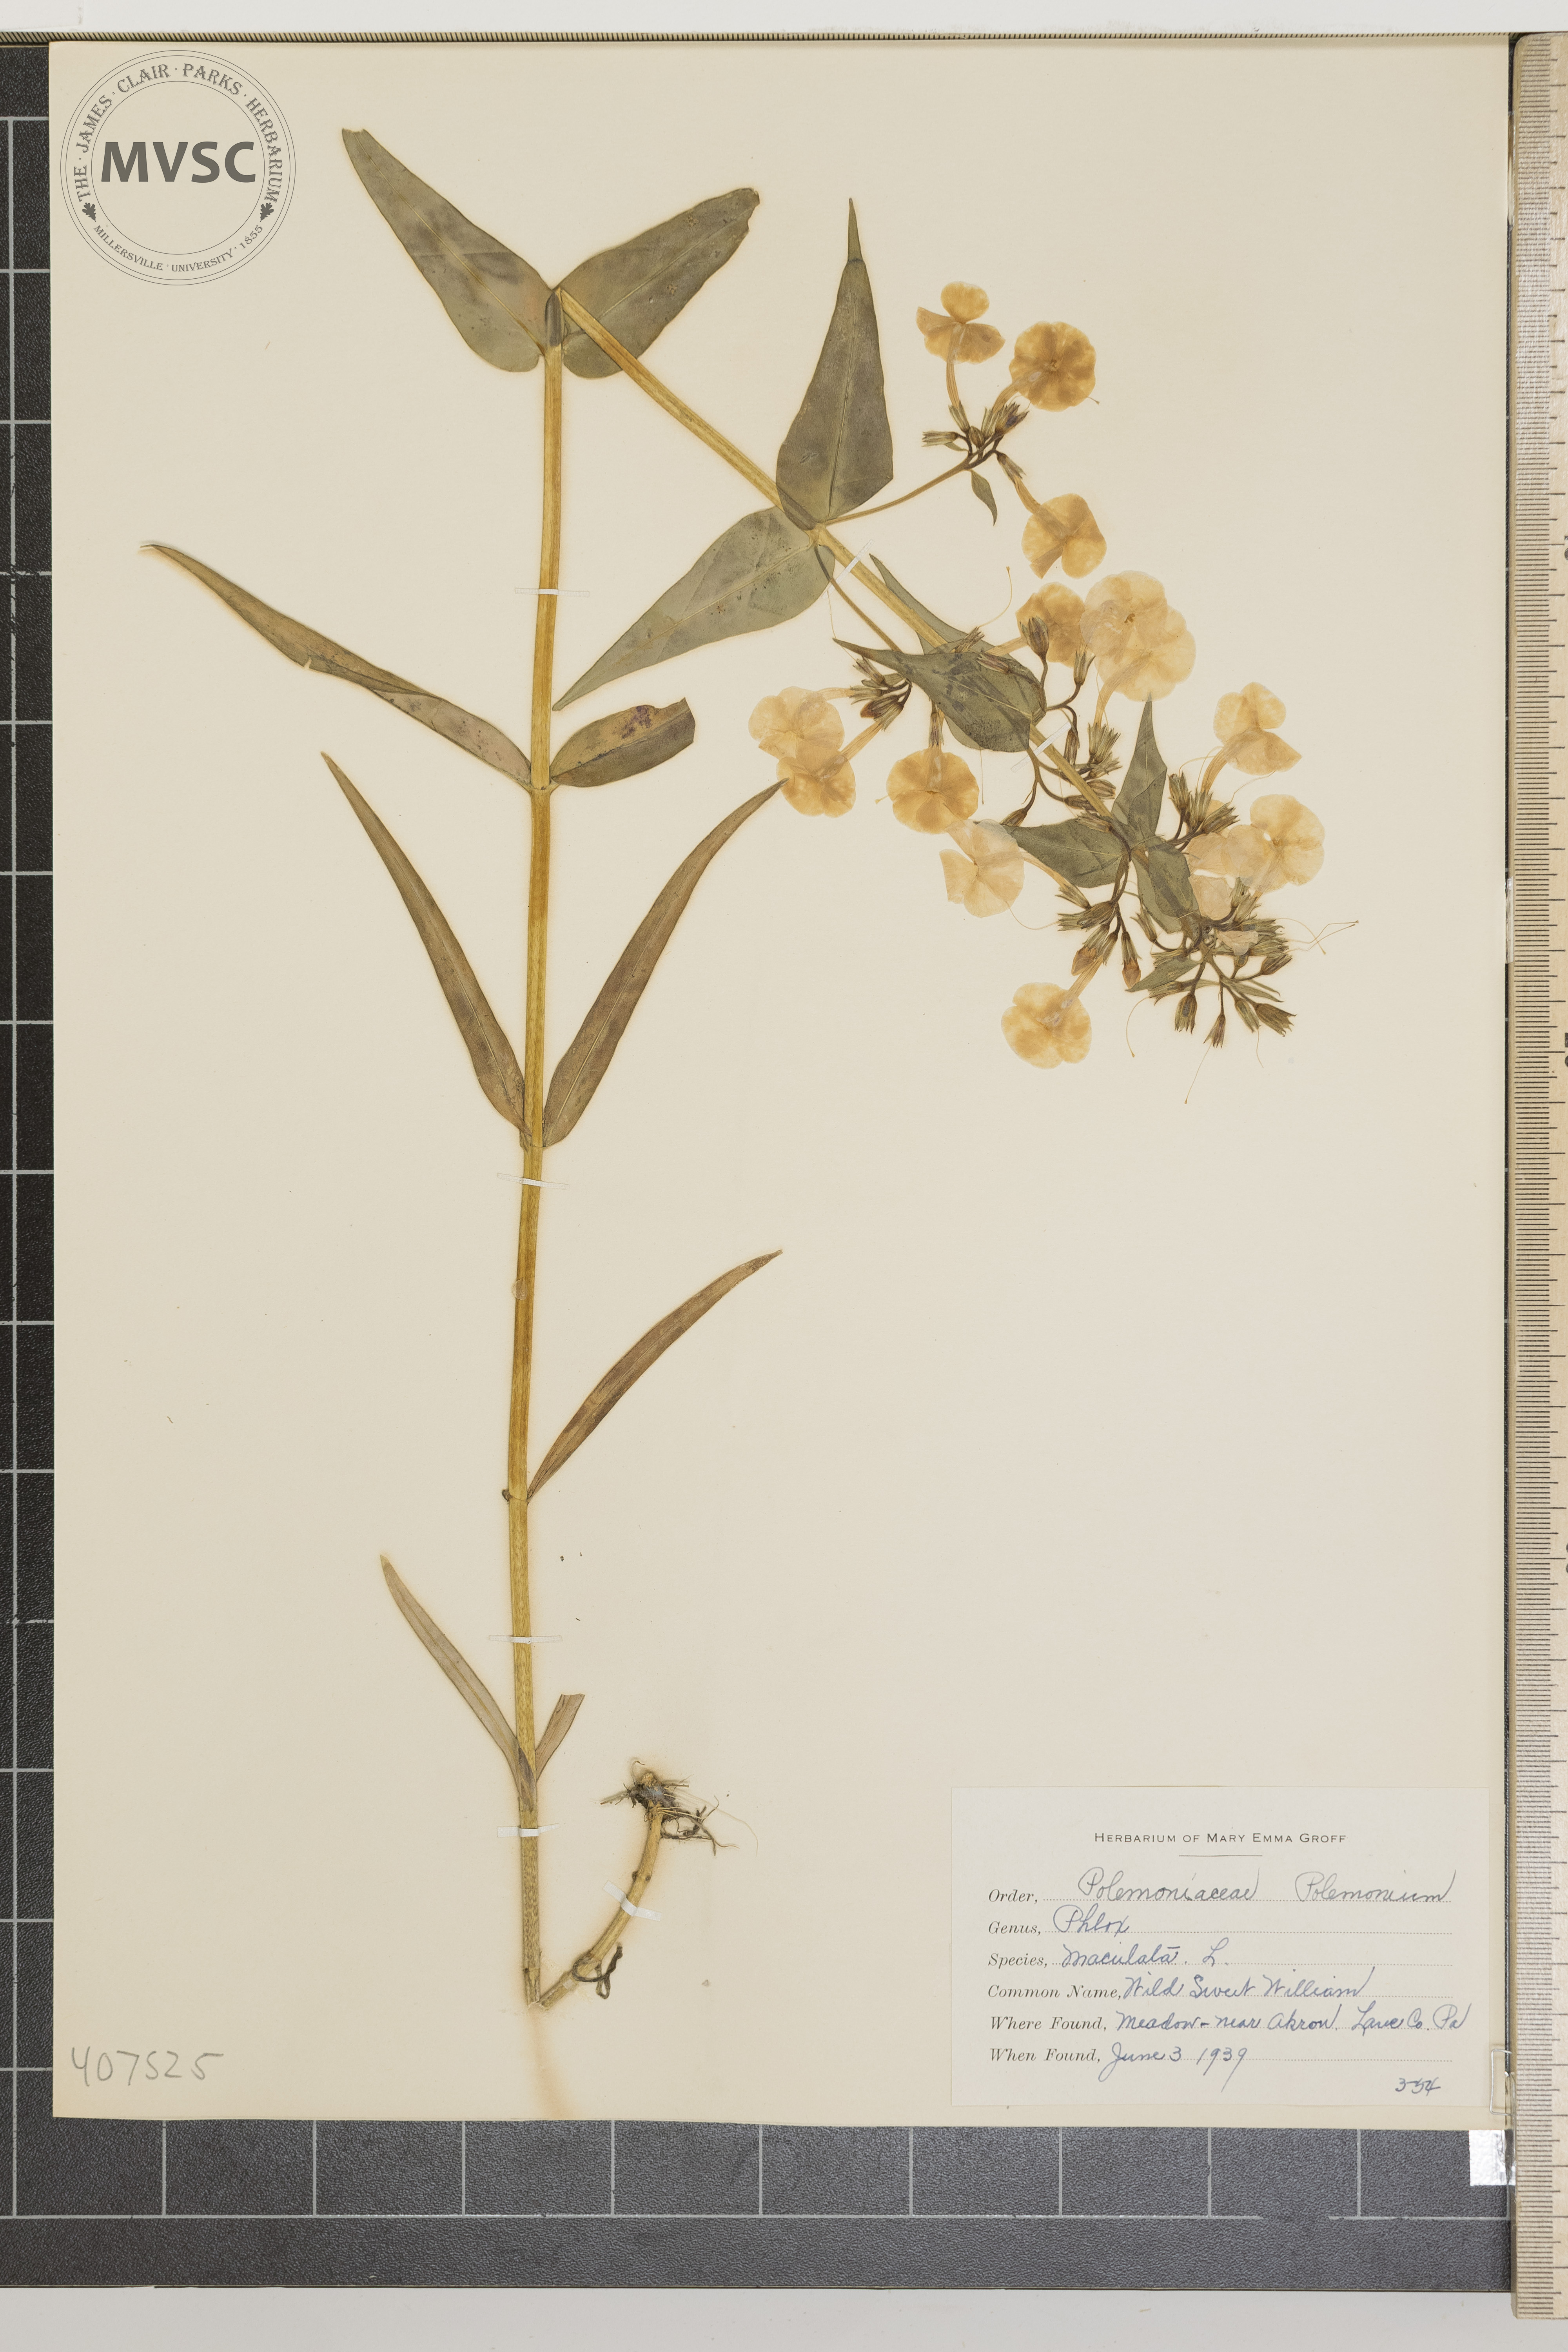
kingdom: Plantae
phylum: Tracheophyta
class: Magnoliopsida
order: Ericales
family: Polemoniaceae
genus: Phlox
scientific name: Phlox maculata
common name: Wild Sweet William
